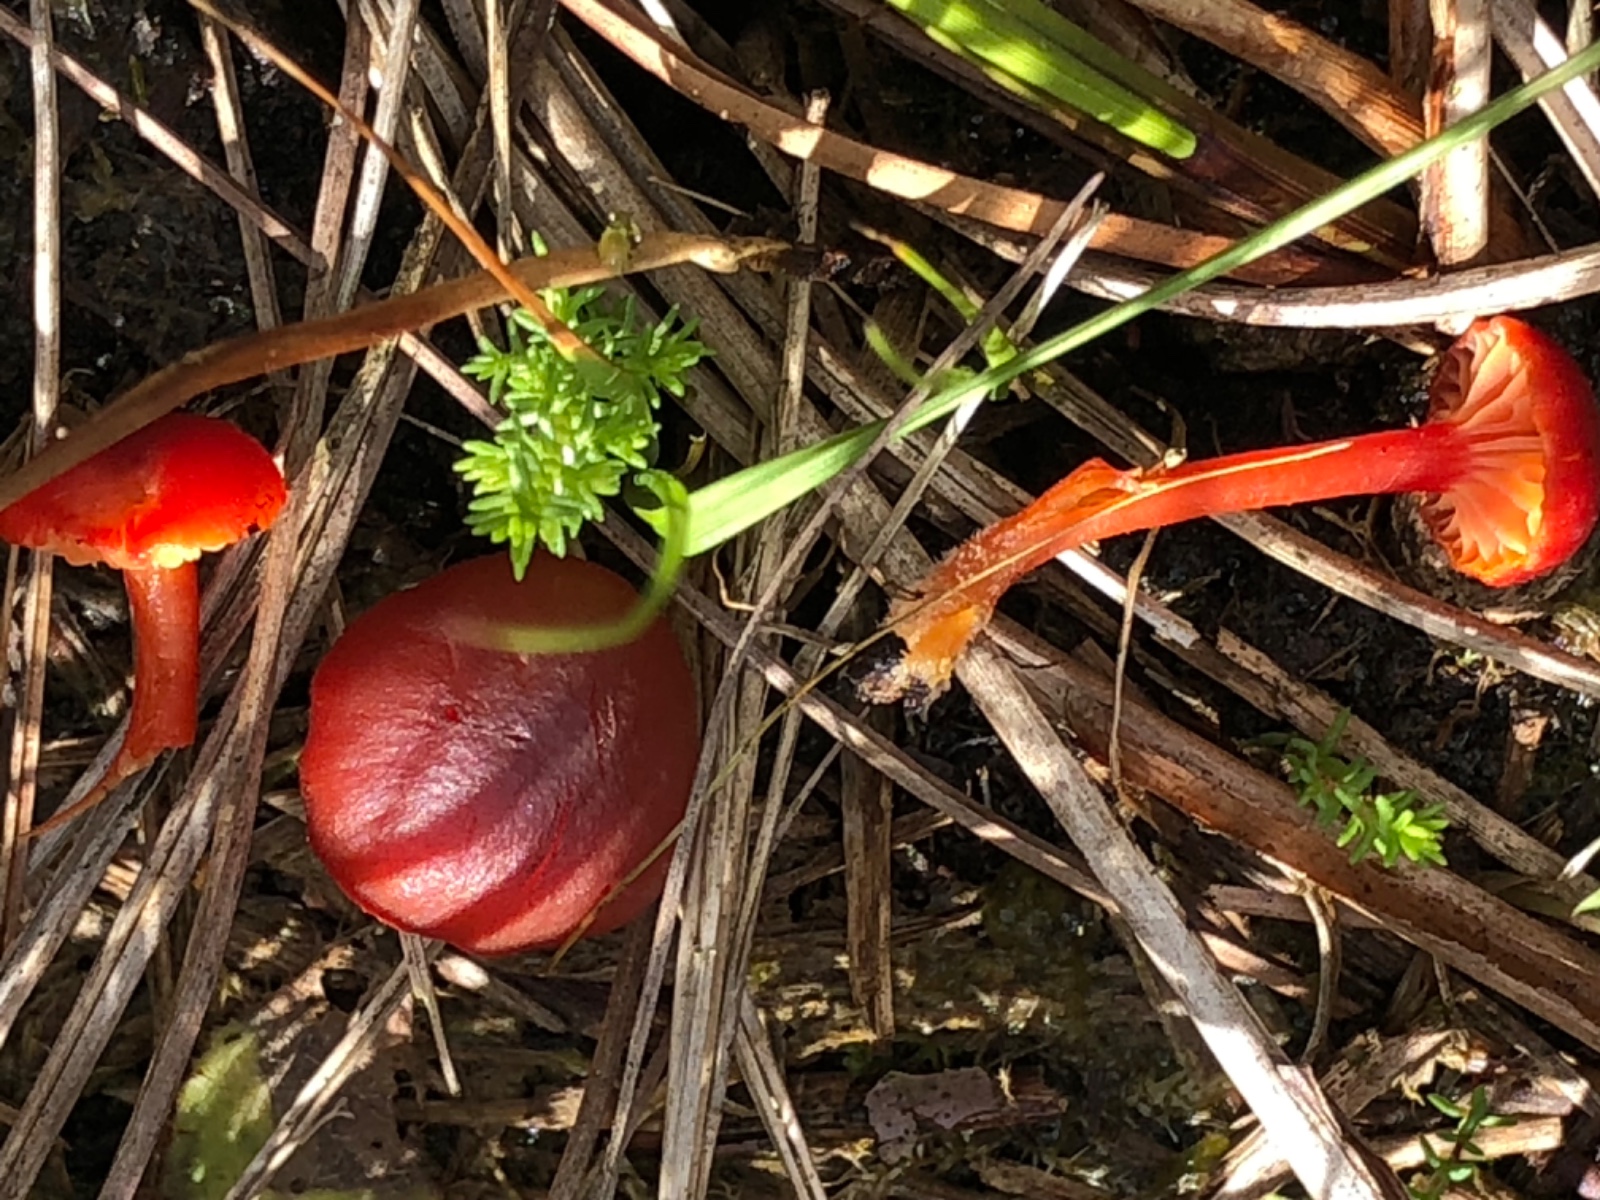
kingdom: Fungi
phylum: Basidiomycota
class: Agaricomycetes
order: Agaricales
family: Hygrophoraceae
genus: Hygrocybe
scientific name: Hygrocybe phaeococcinea
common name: sortdugget vokshat
